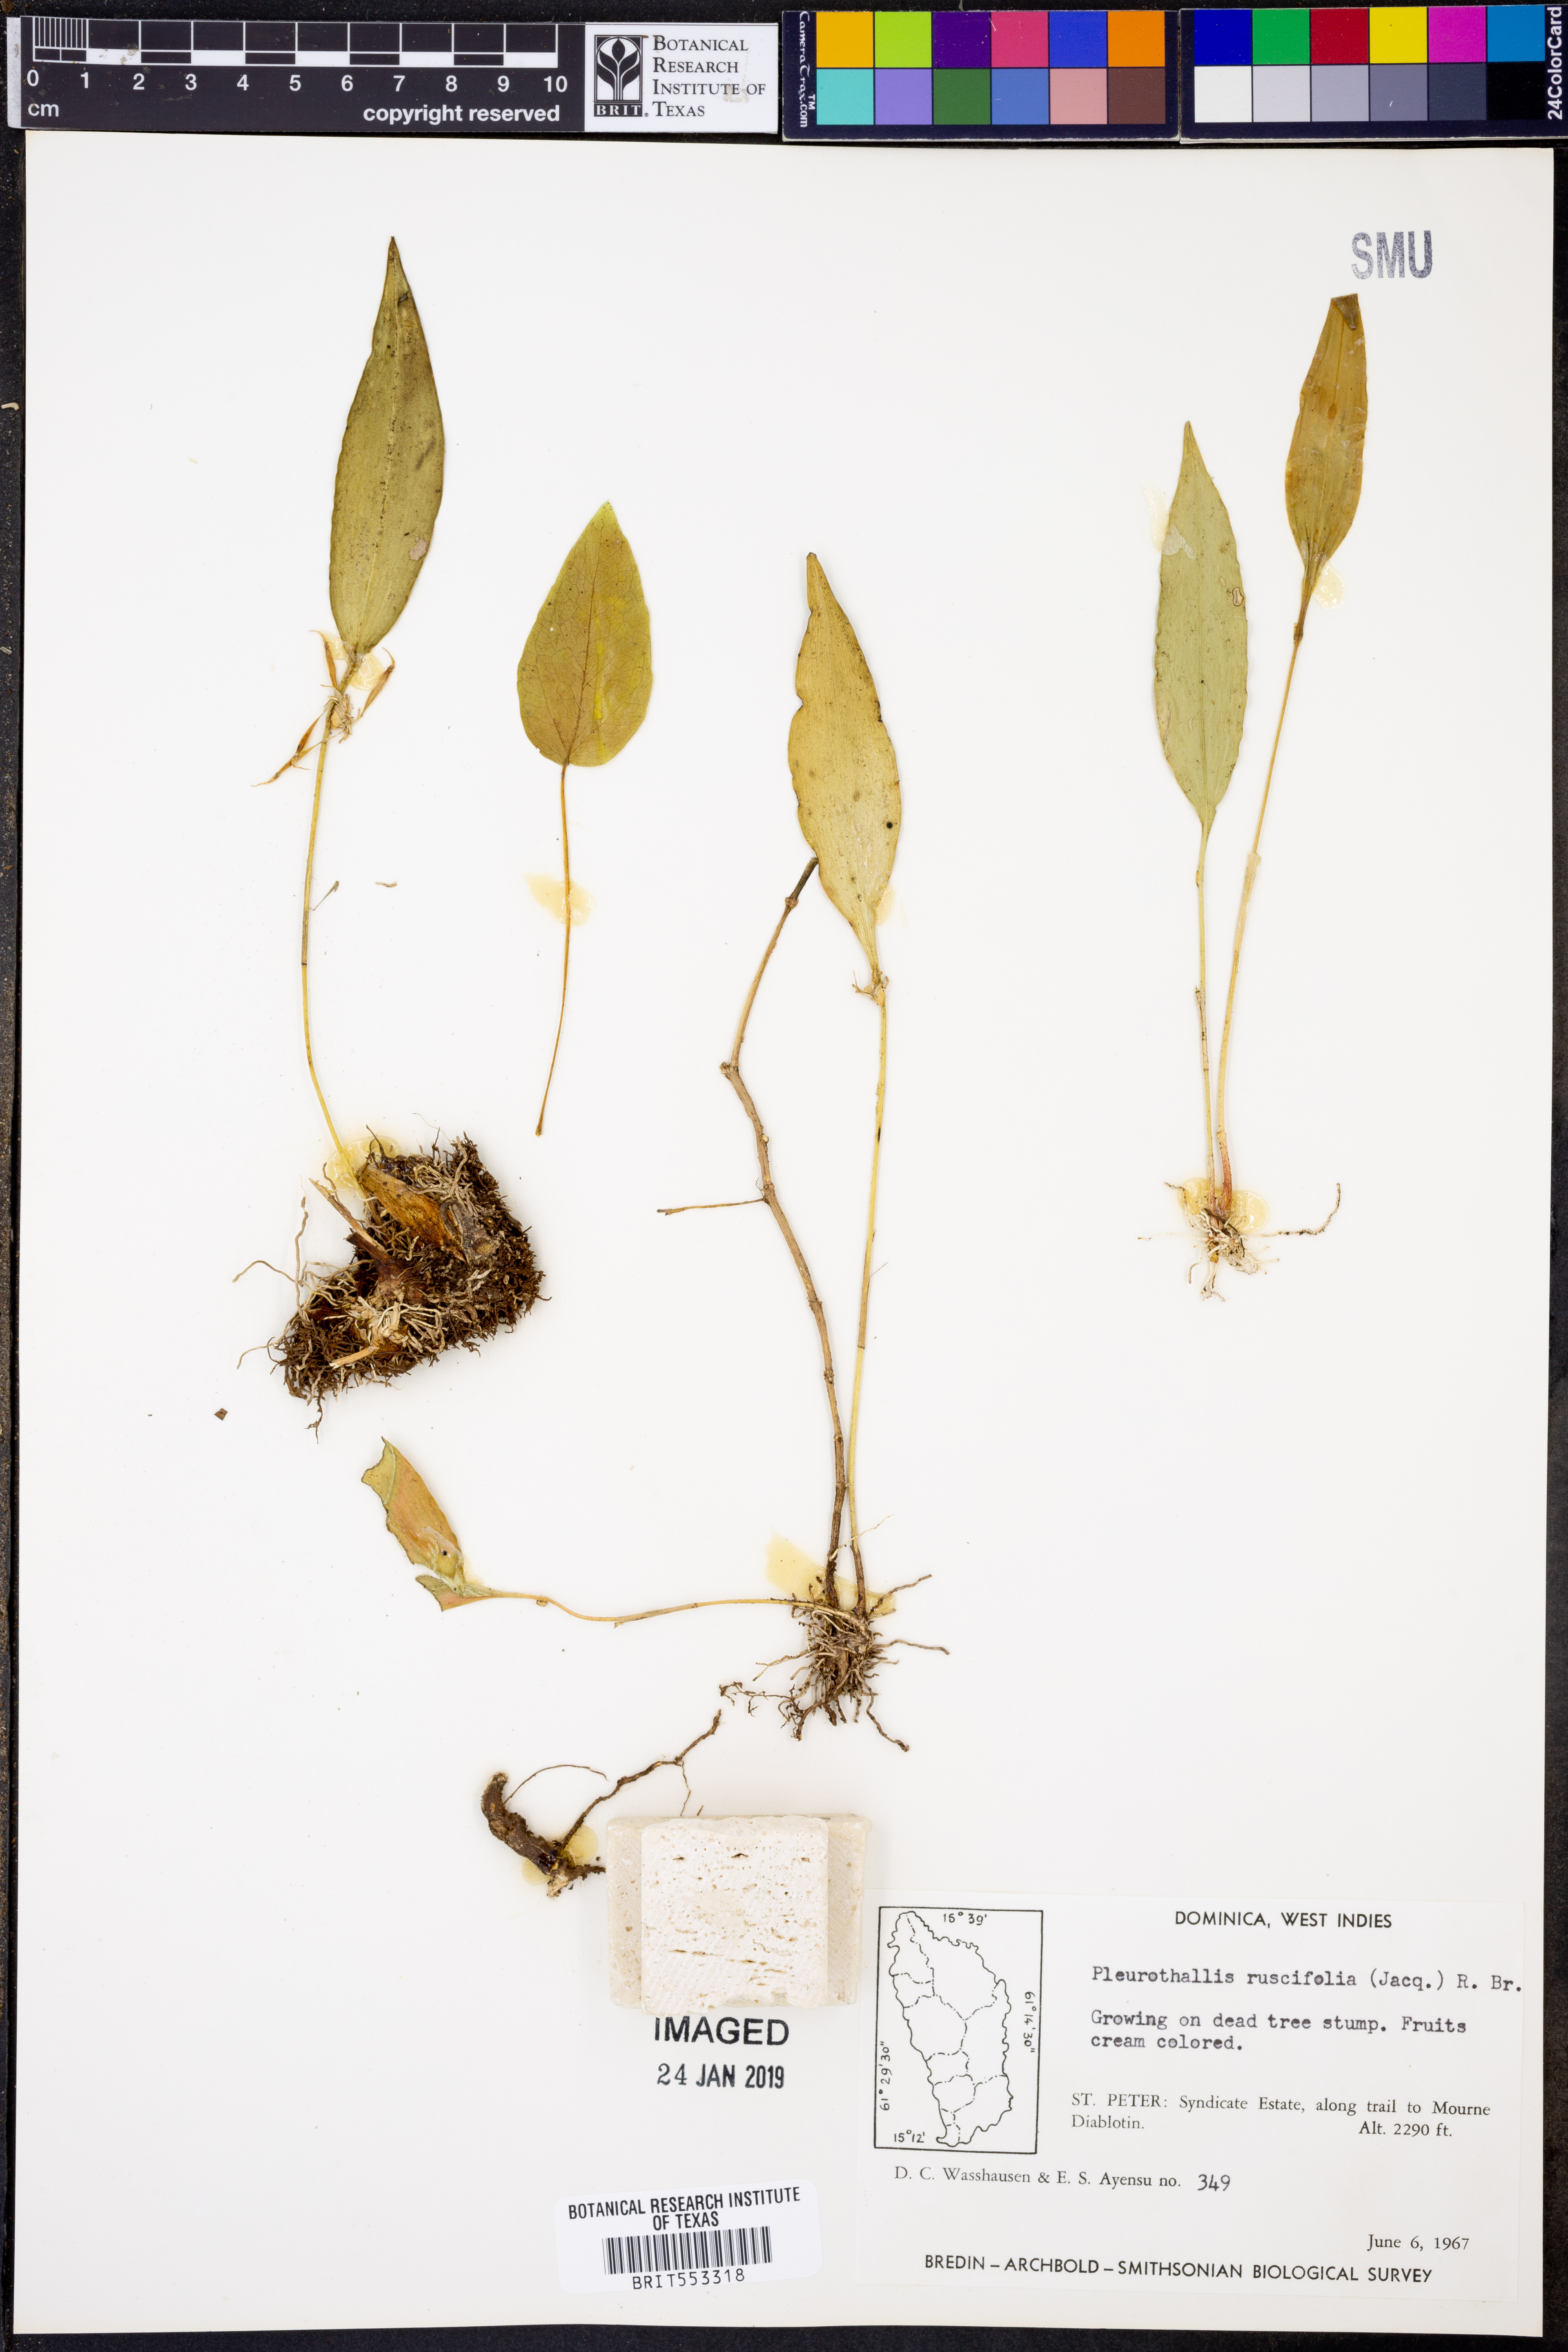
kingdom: Plantae
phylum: Tracheophyta
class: Liliopsida
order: Asparagales
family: Orchidaceae
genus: Pleurothallis
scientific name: Pleurothallis ruscifolia
